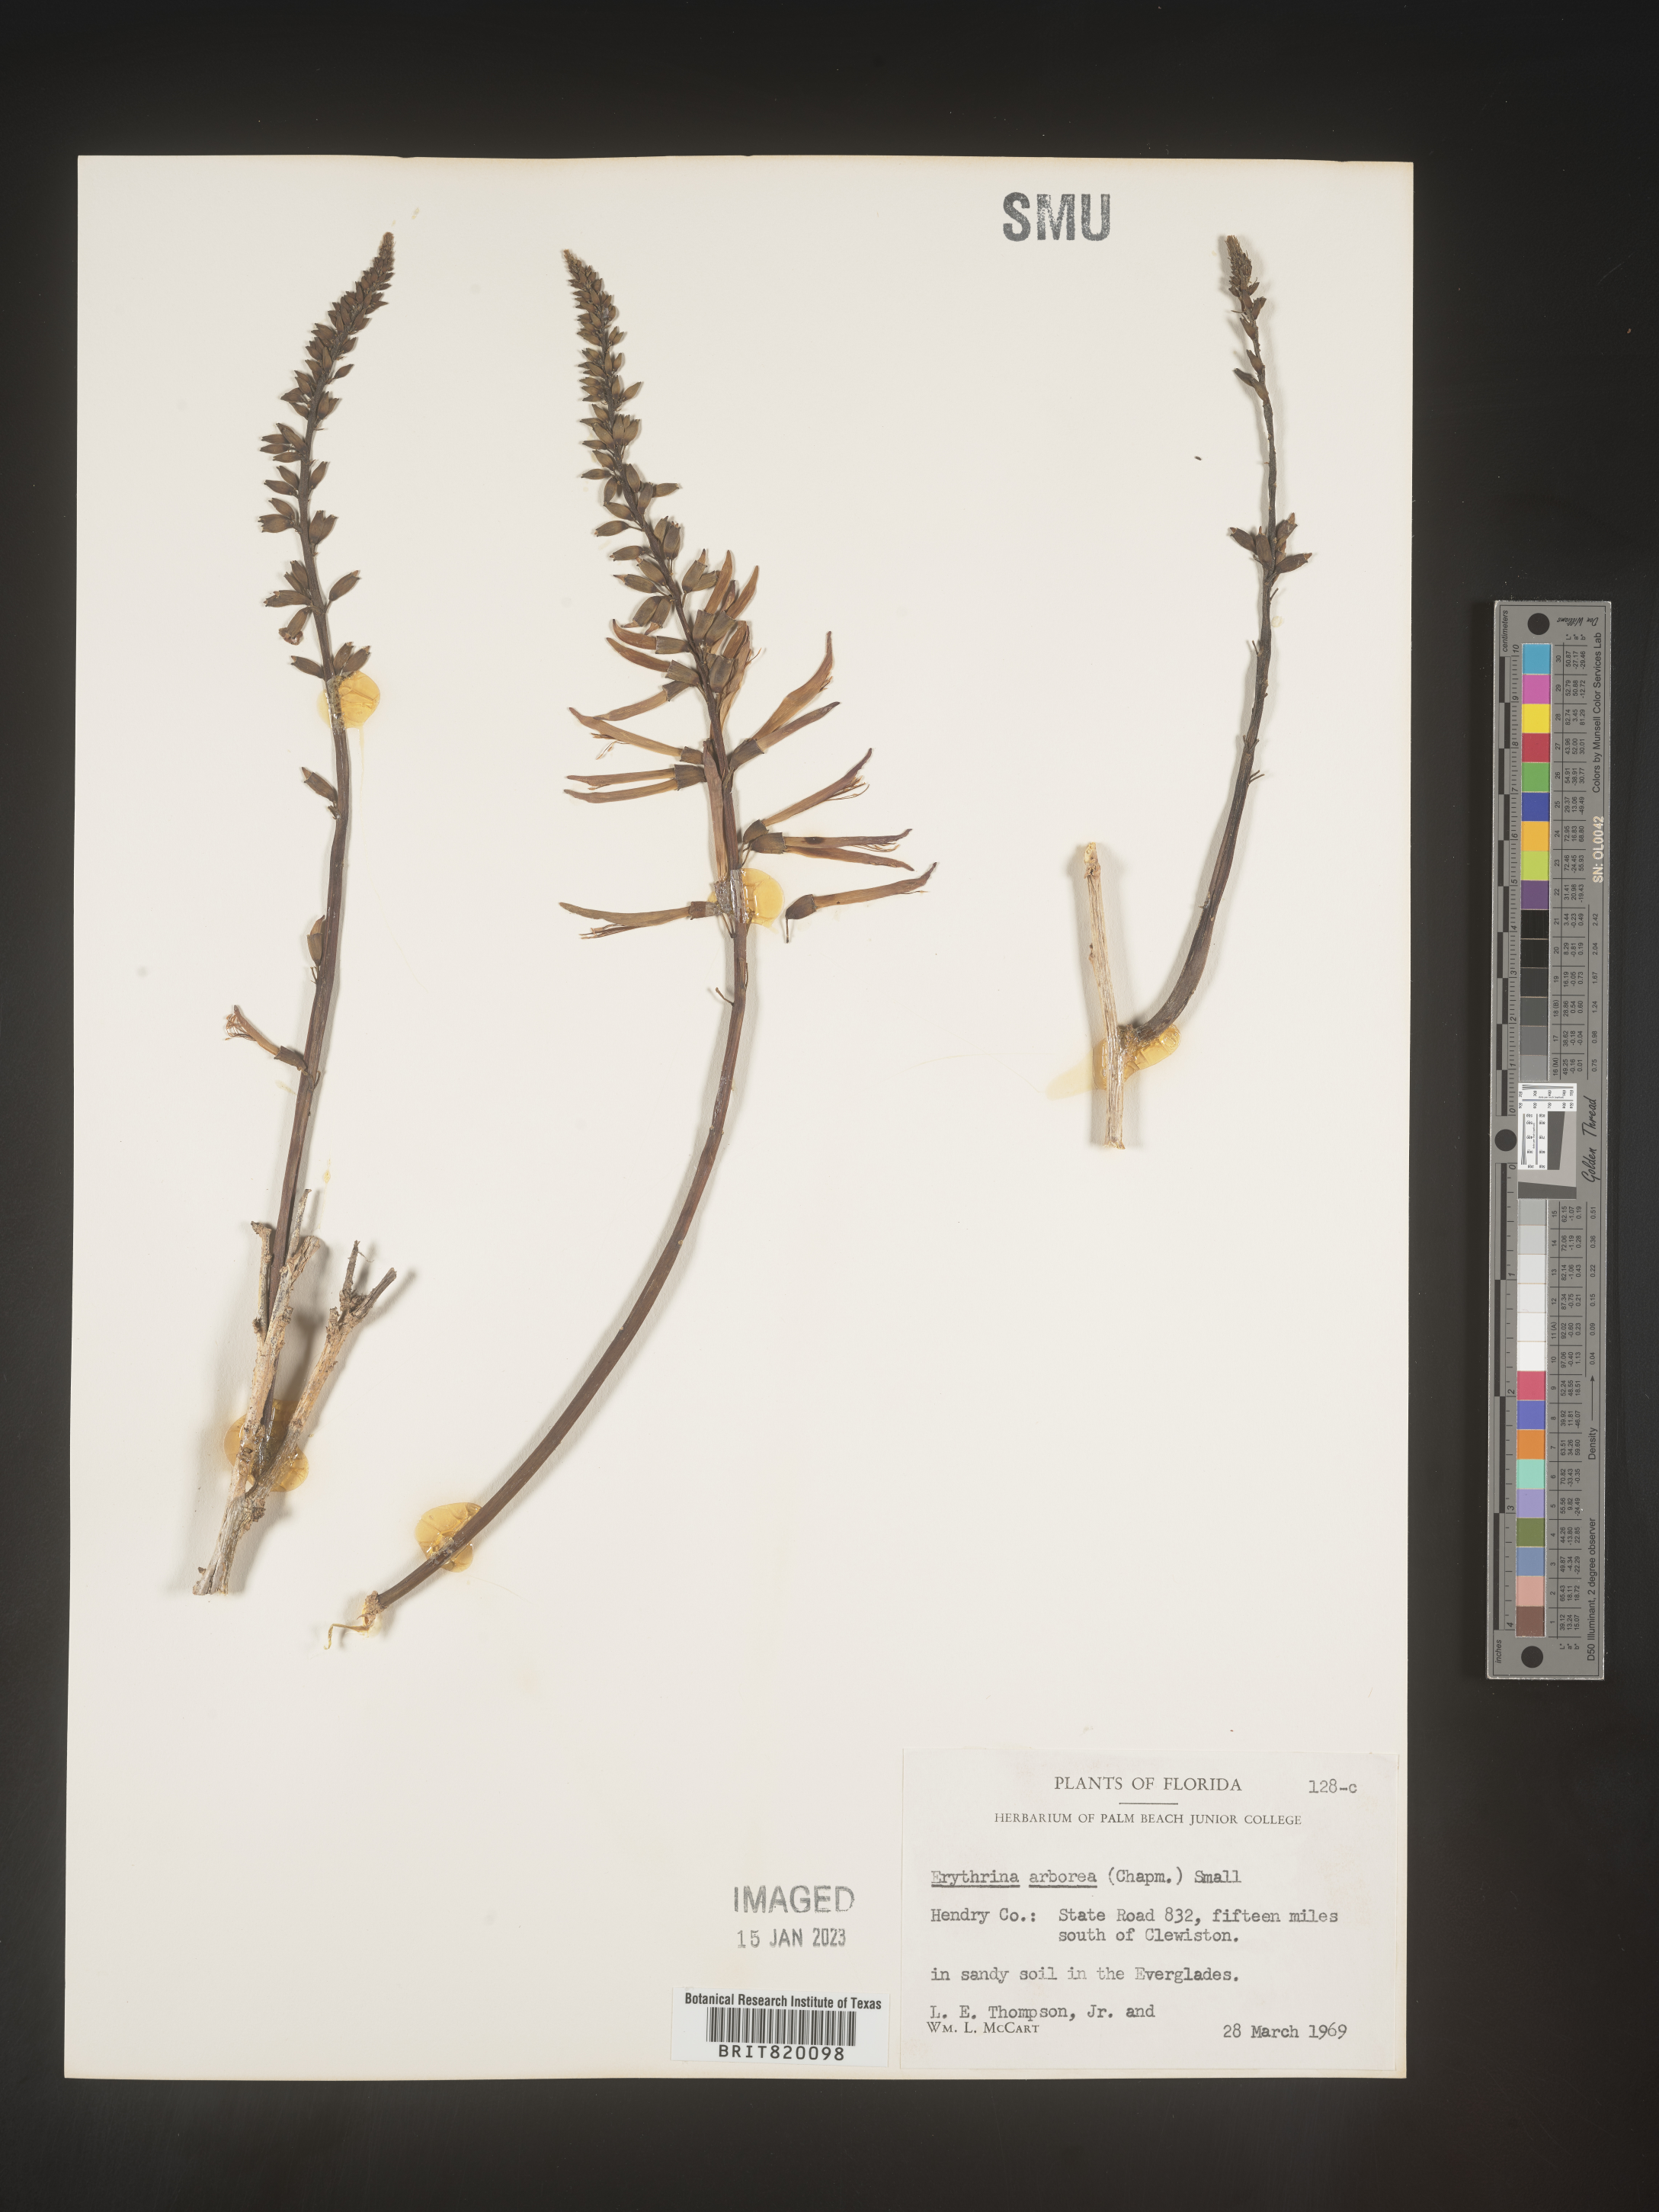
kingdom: Plantae
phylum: Tracheophyta
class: Magnoliopsida
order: Fabales
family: Fabaceae
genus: Erythrina
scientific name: Erythrina herbacea
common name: Coral-bean
